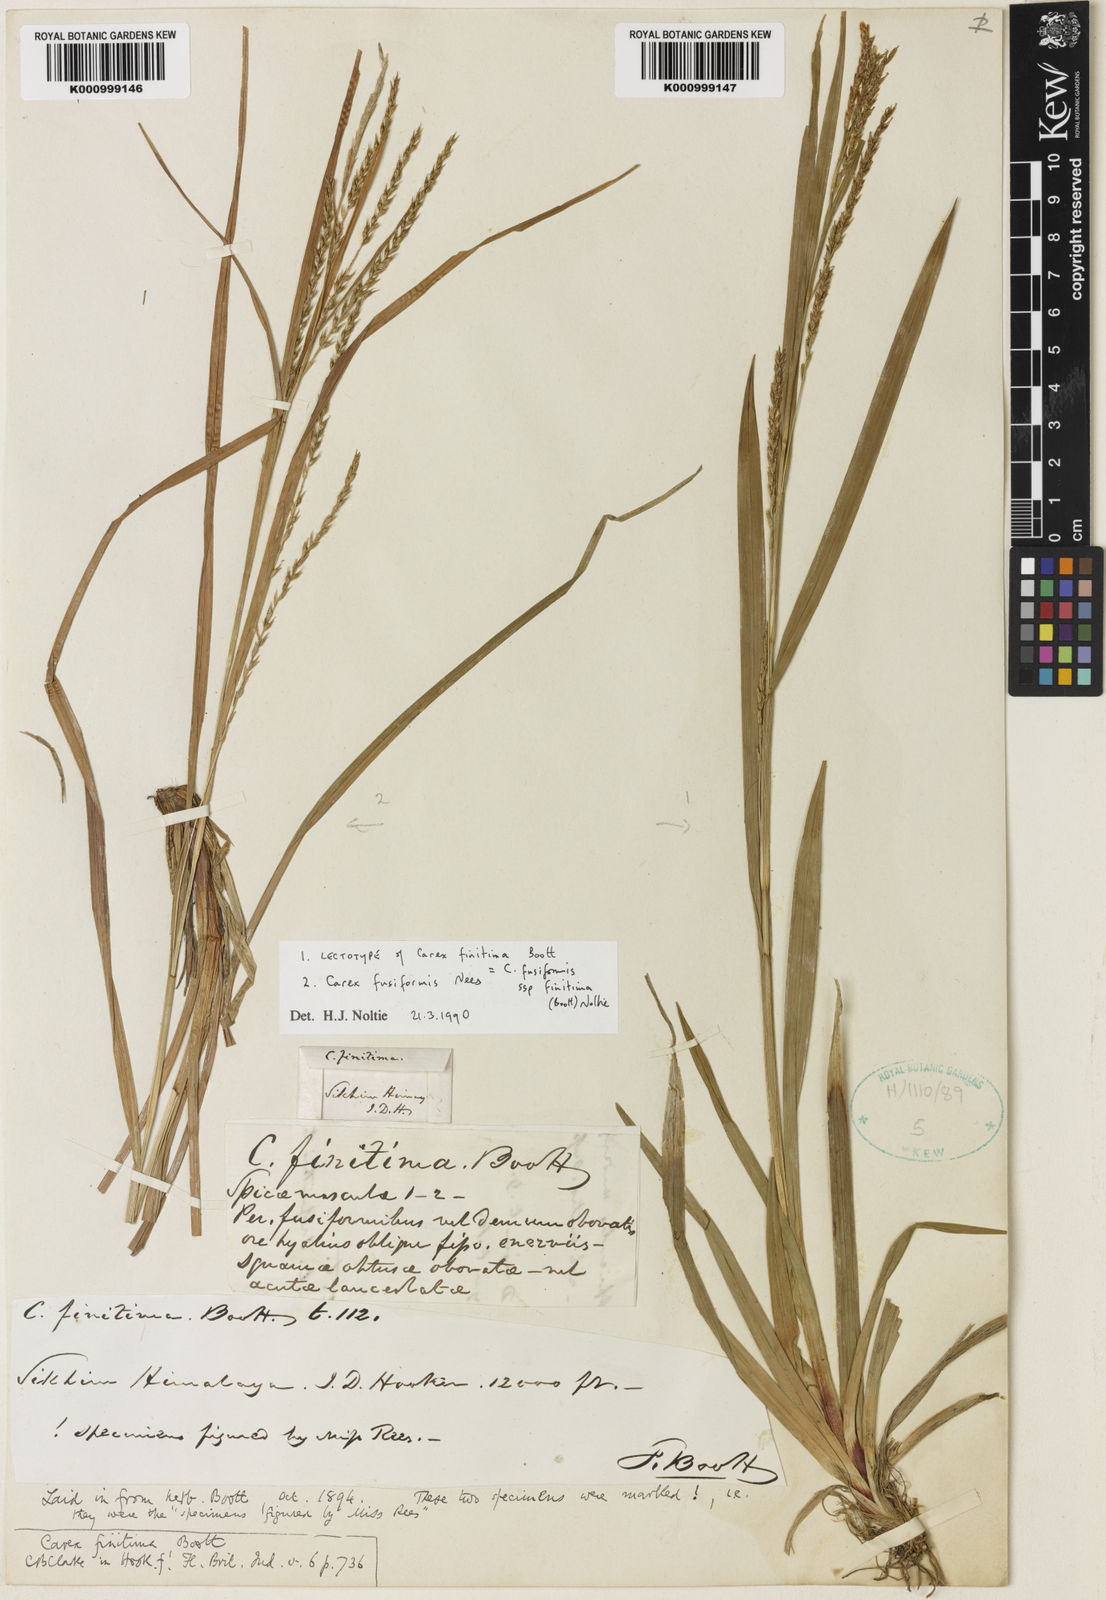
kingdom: Plantae
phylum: Tracheophyta
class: Liliopsida
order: Poales
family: Cyperaceae
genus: Carex
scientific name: Carex fusiformis
